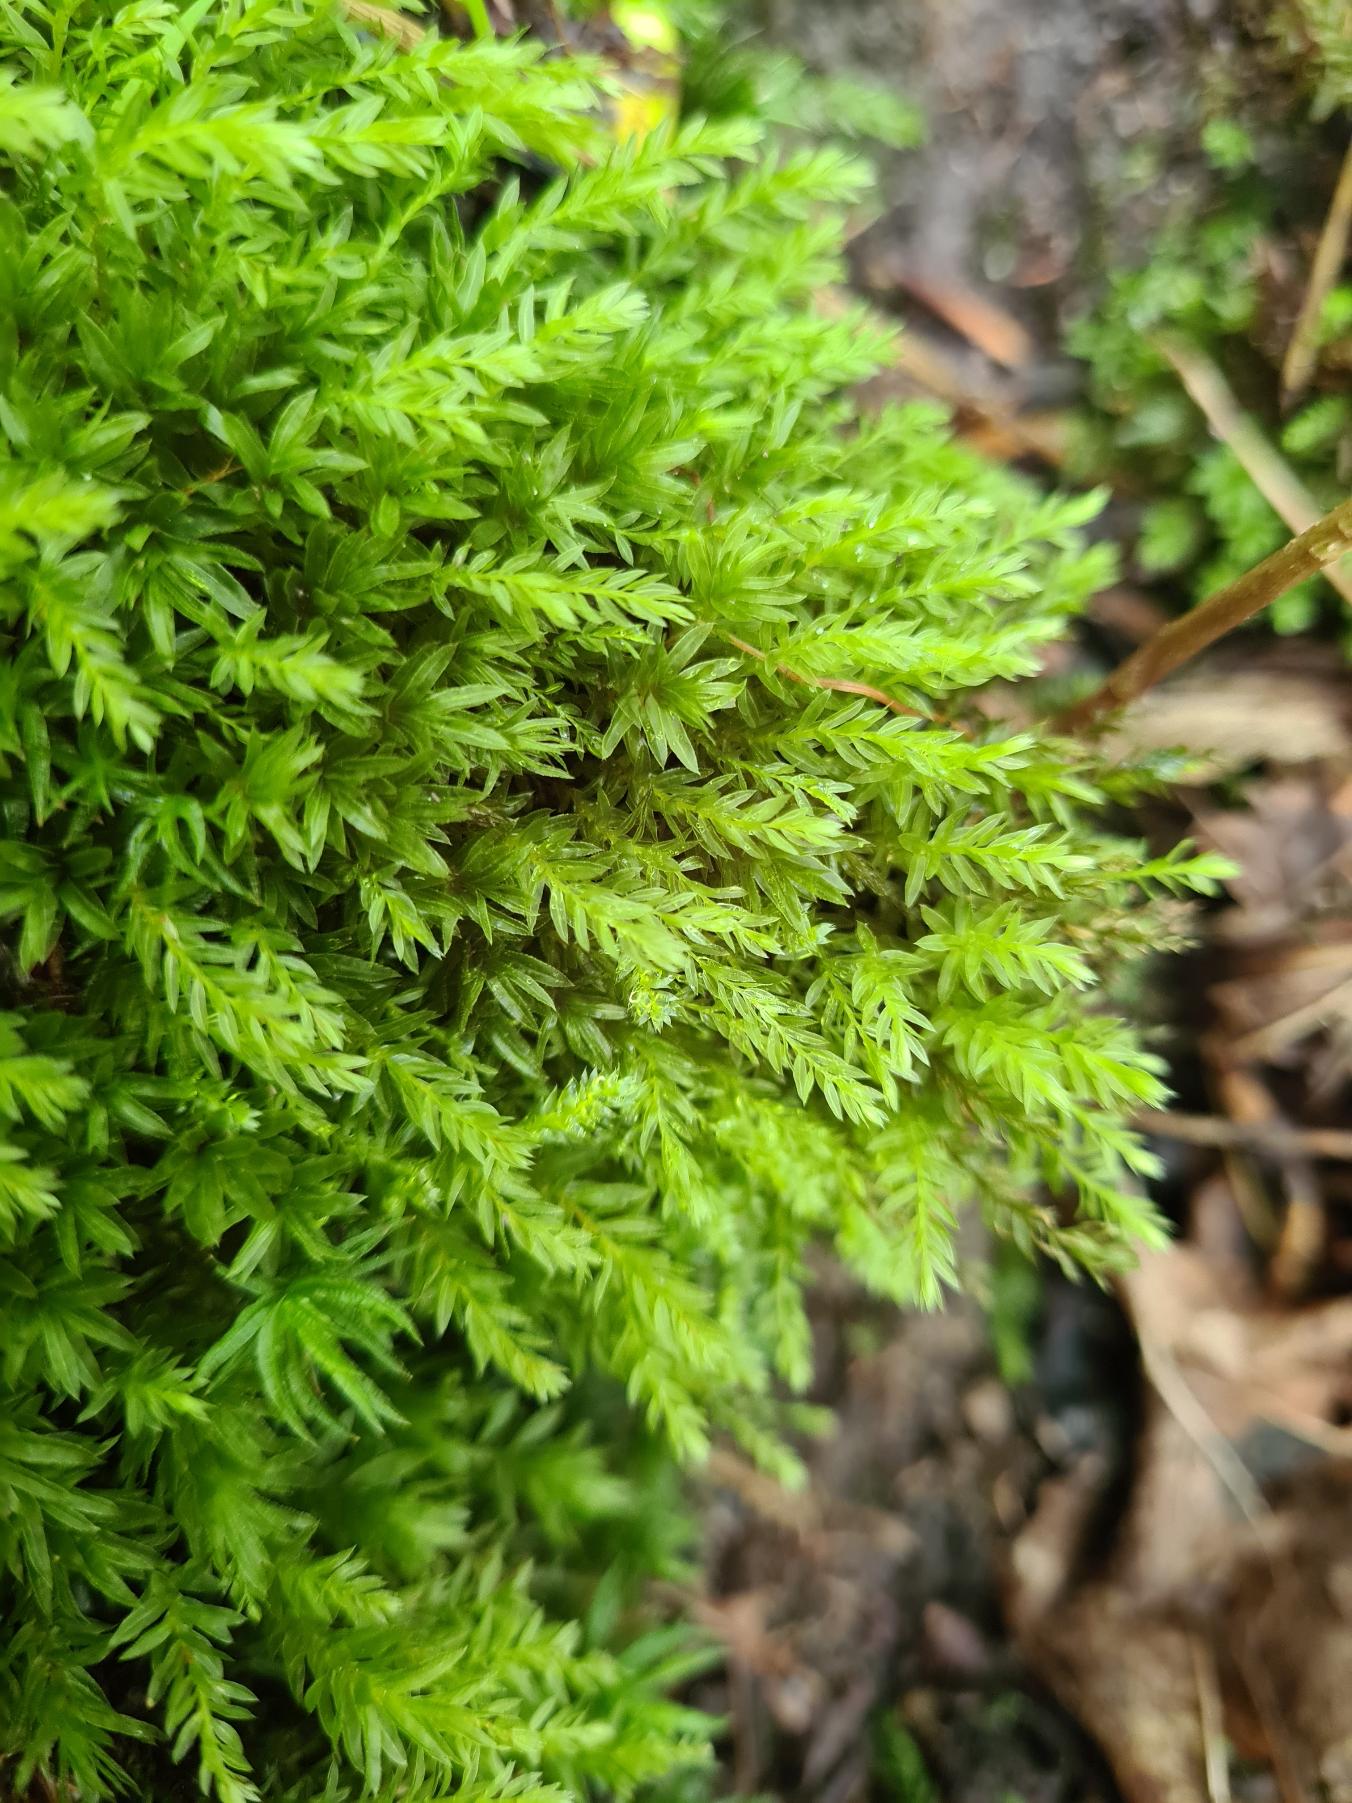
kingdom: Plantae
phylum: Bryophyta
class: Bryopsida
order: Bryales
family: Mniaceae
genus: Mnium
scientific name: Mnium hornum
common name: Brunfiltet stjernemos
